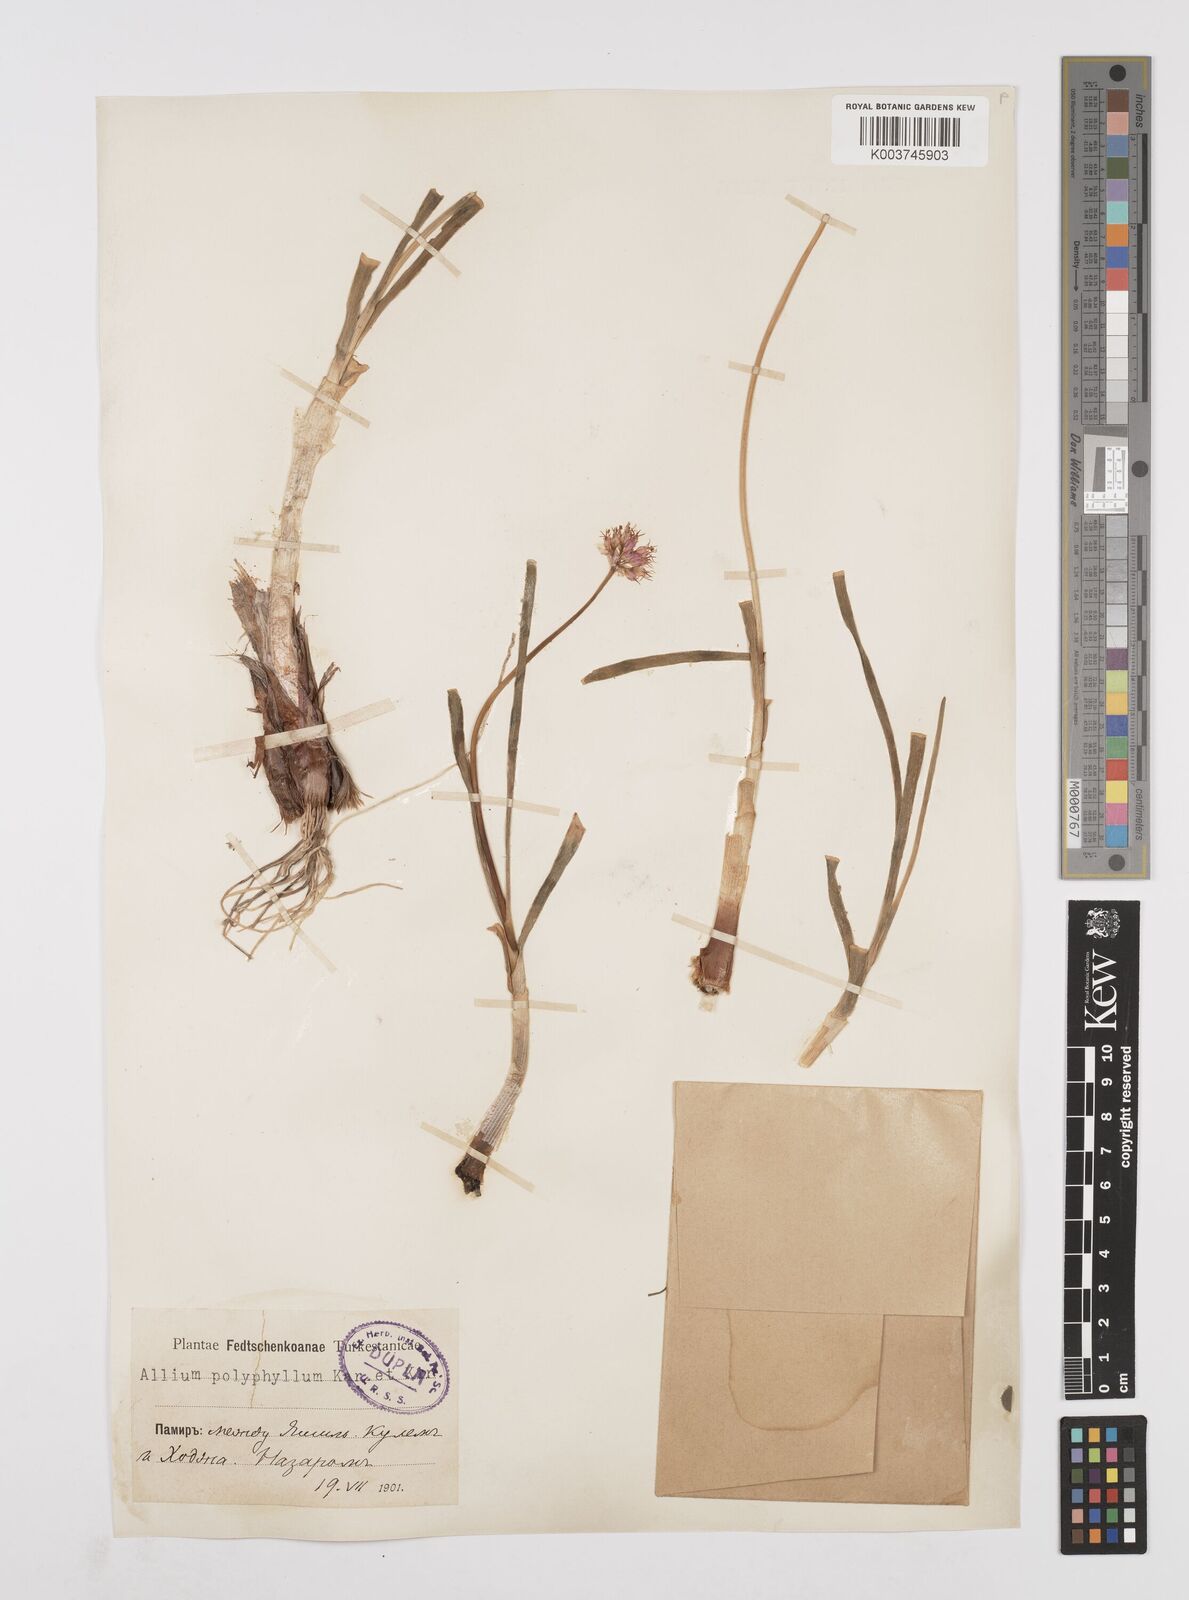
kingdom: Plantae
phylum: Tracheophyta
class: Liliopsida
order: Asparagales
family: Amaryllidaceae
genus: Allium
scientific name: Allium carolinianum
